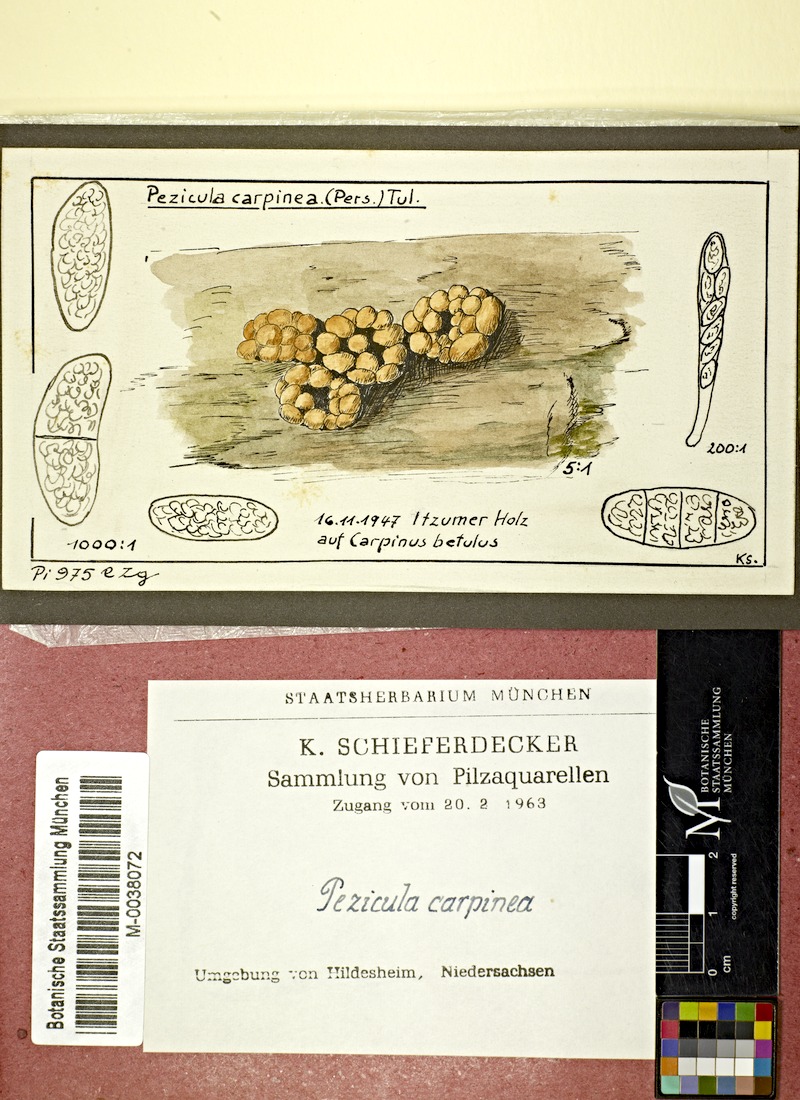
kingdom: Fungi
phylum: Ascomycota
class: Leotiomycetes
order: Helotiales
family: Dermateaceae
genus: Pezicula
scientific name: Pezicula carpinea
